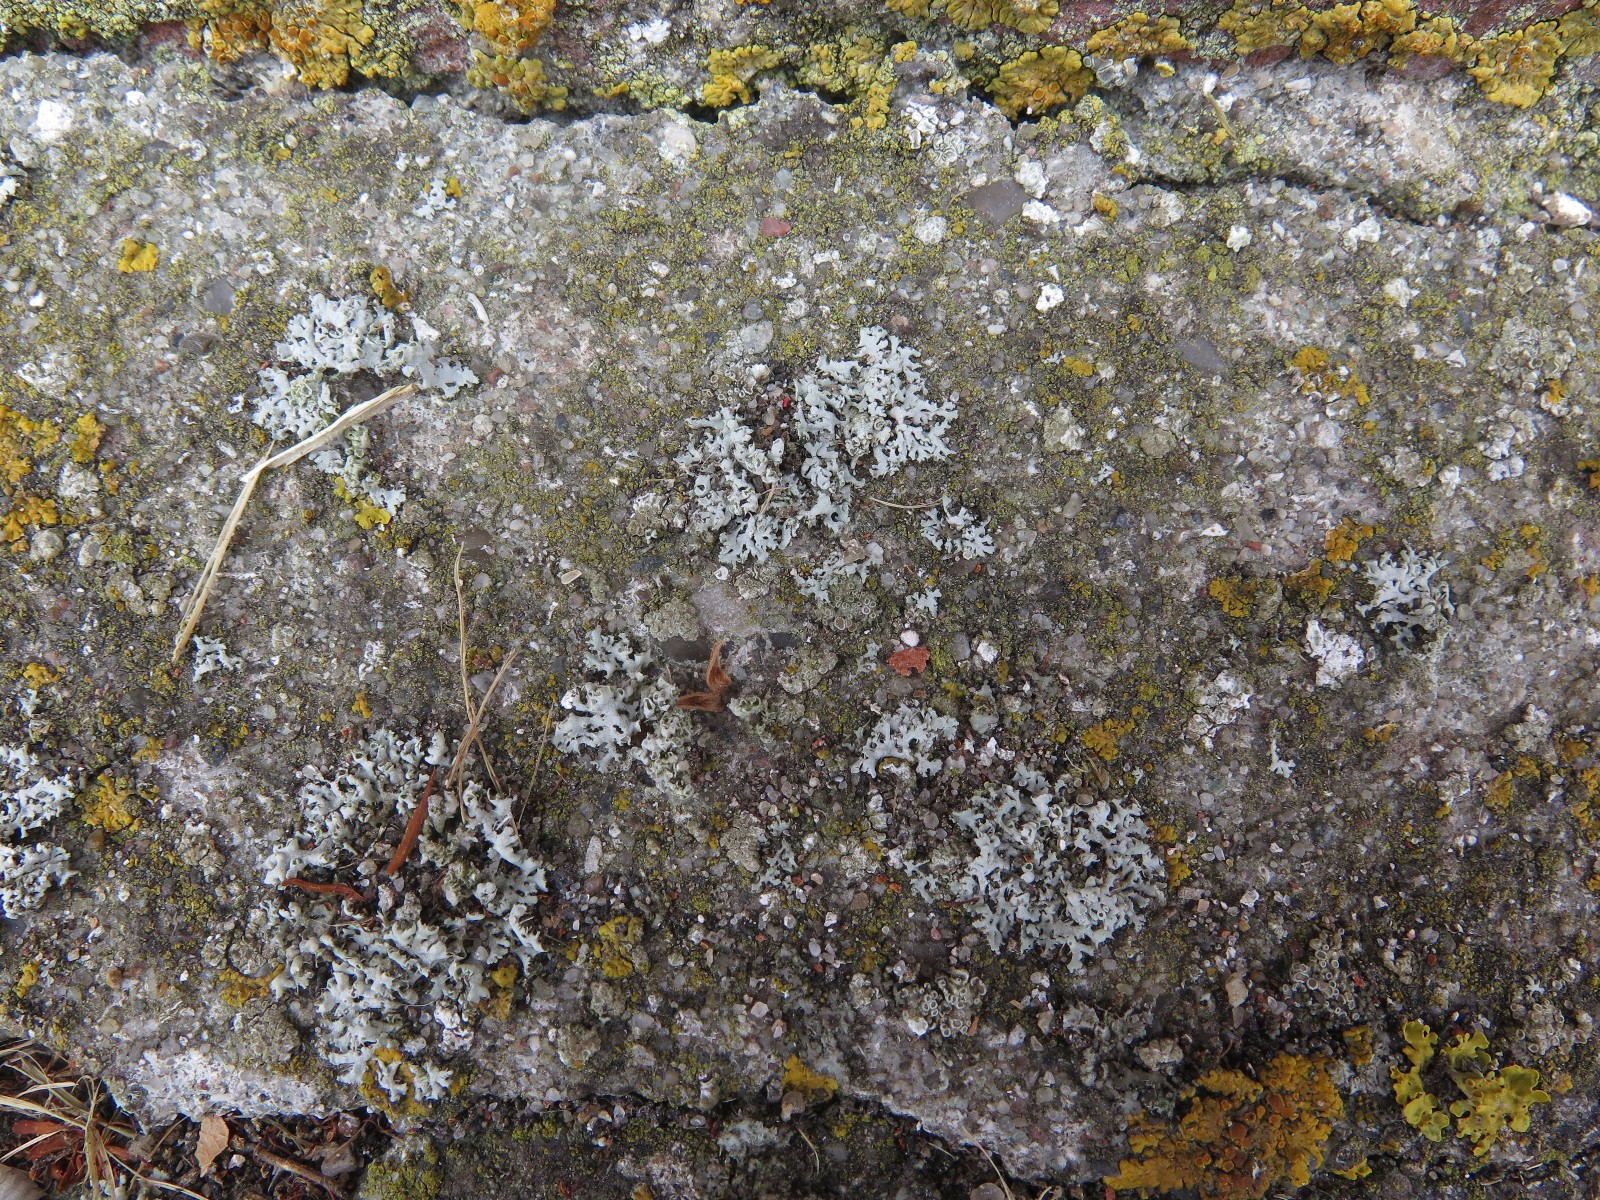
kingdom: Fungi
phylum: Ascomycota
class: Lecanoromycetes
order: Caliciales
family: Physciaceae
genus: Physcia
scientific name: Physcia adscendens
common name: hætte-rosetlav
